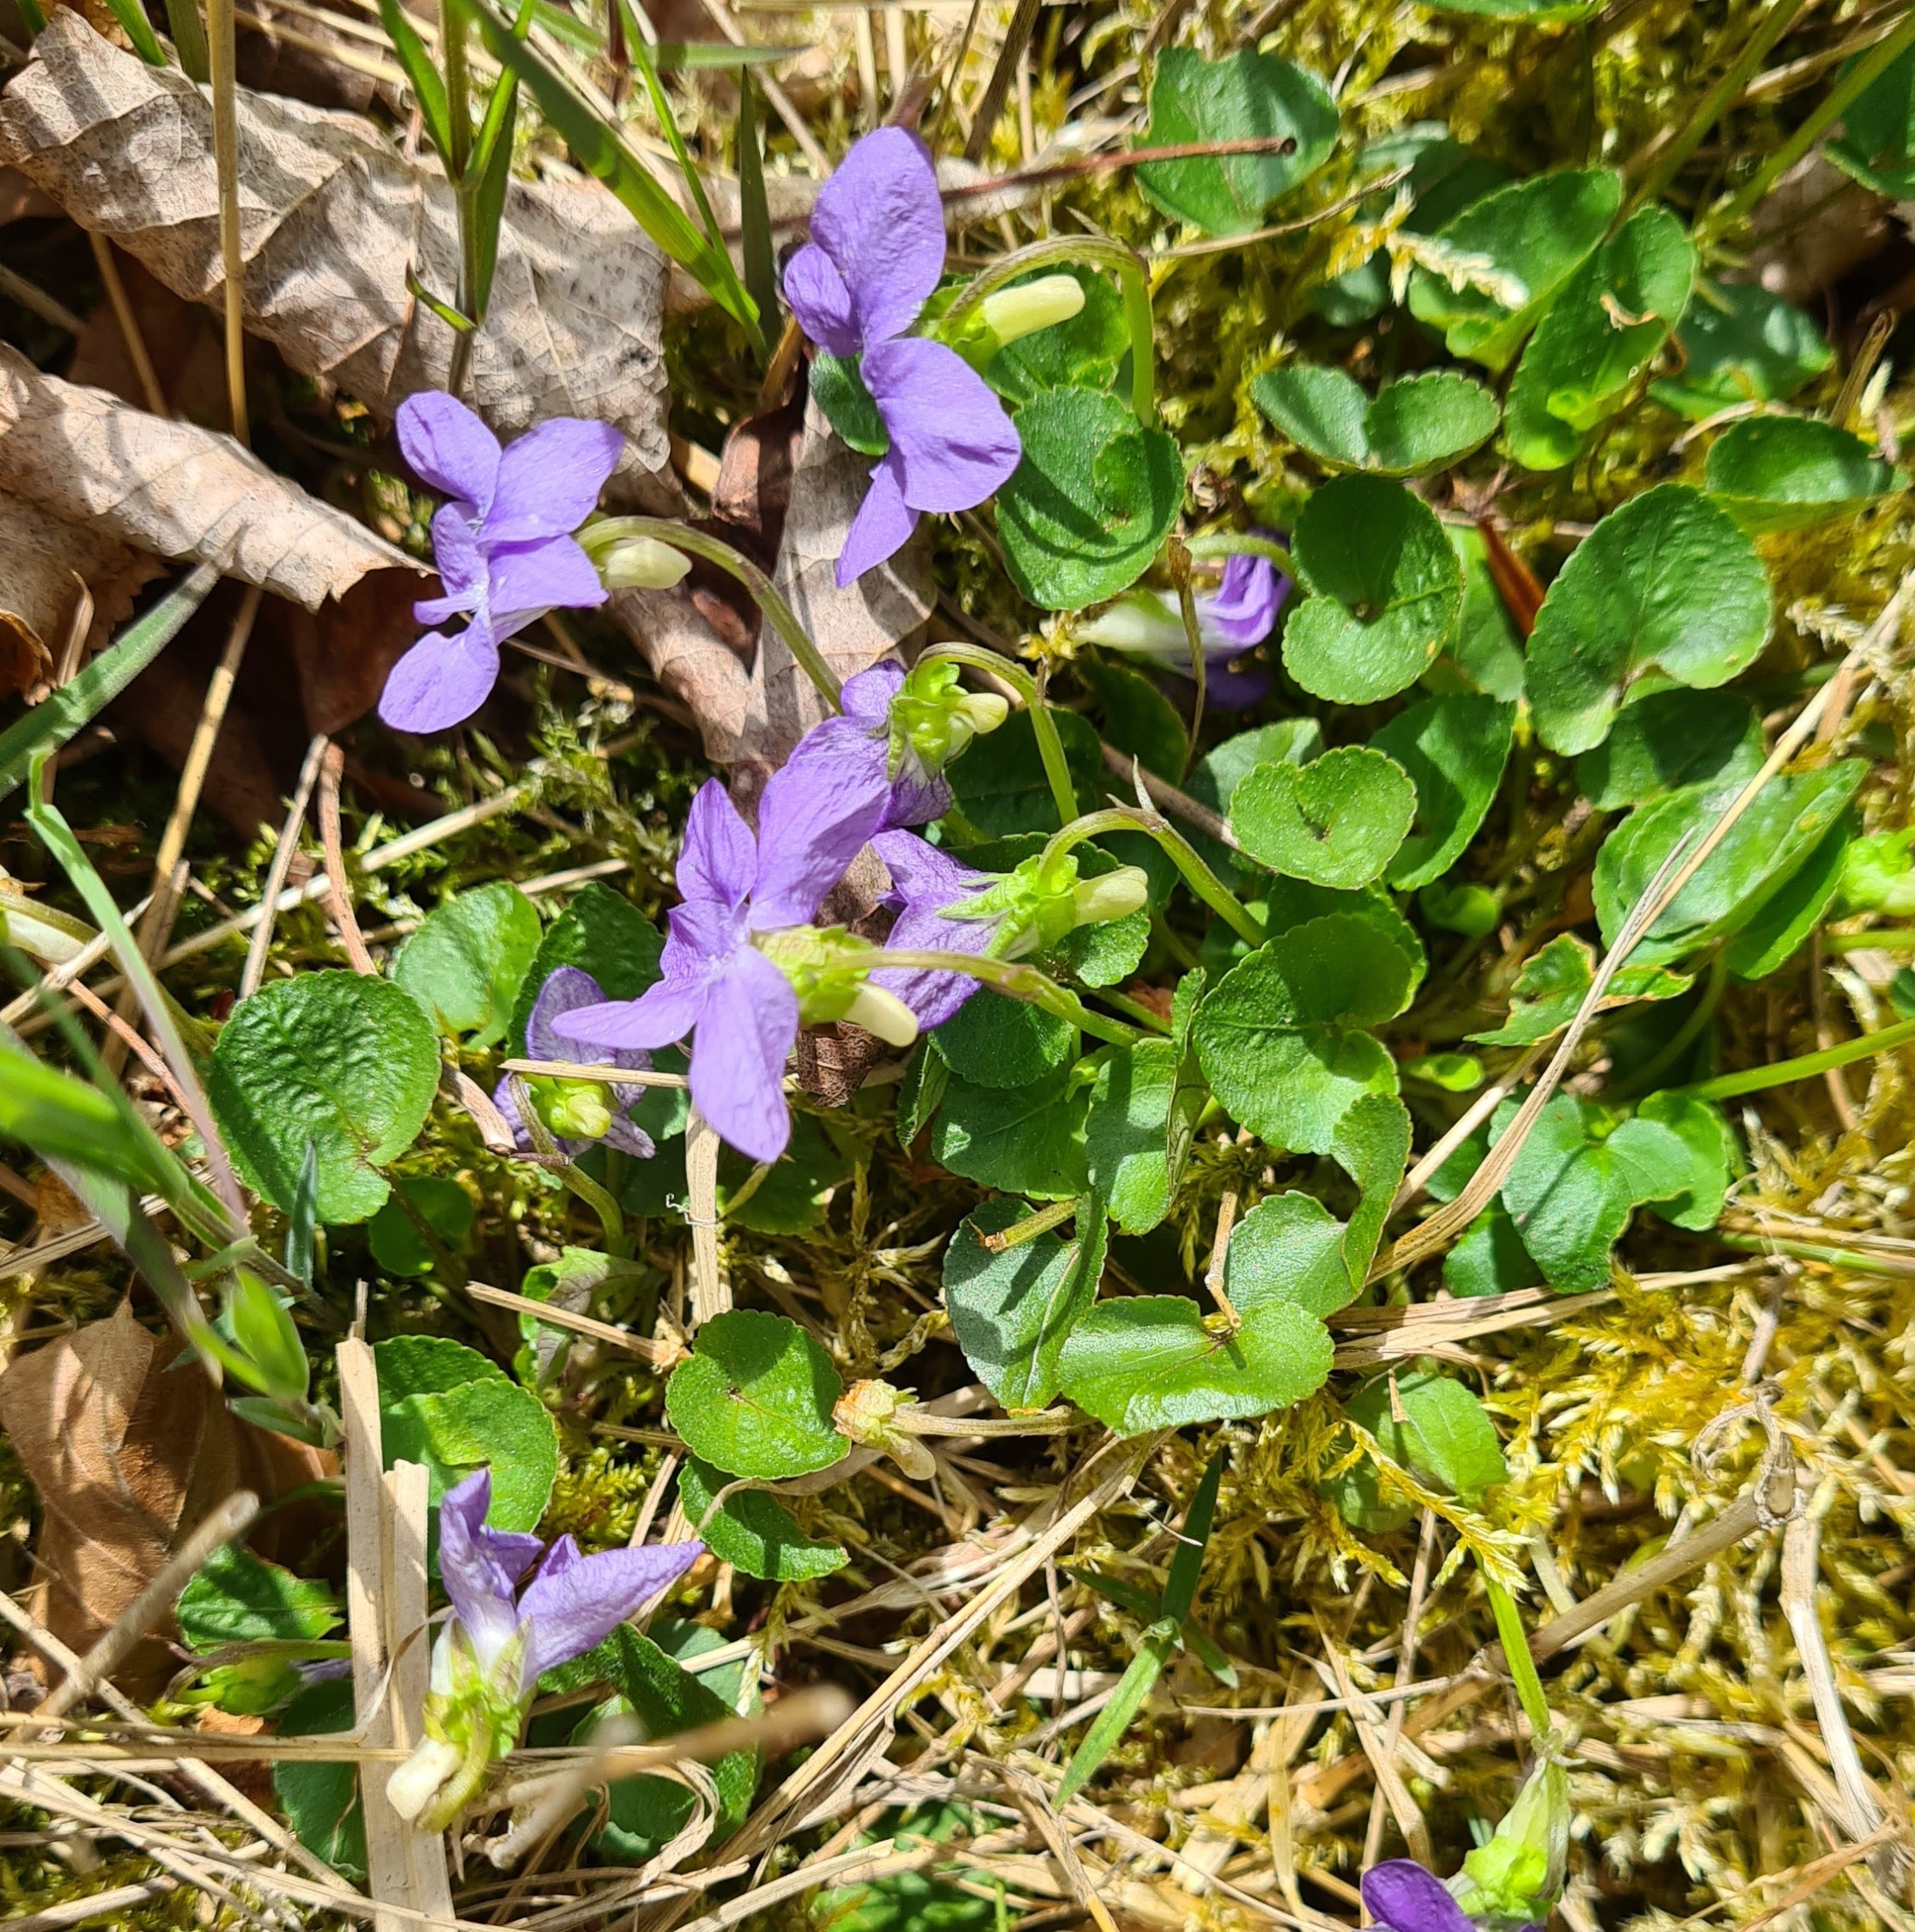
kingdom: Plantae
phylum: Tracheophyta
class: Magnoliopsida
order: Malpighiales
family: Violaceae
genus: Viola
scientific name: Viola riviniana
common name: Krat-viol
